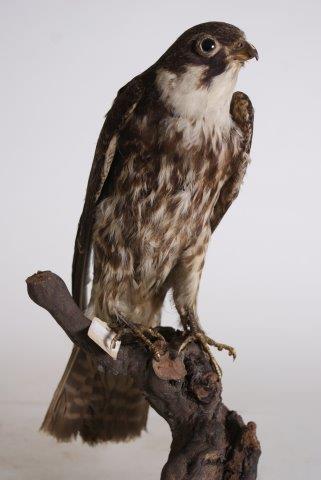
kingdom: Animalia
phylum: Chordata
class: Aves
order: Falconiformes
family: Falconidae
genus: Falco
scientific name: Falco subbuteo
